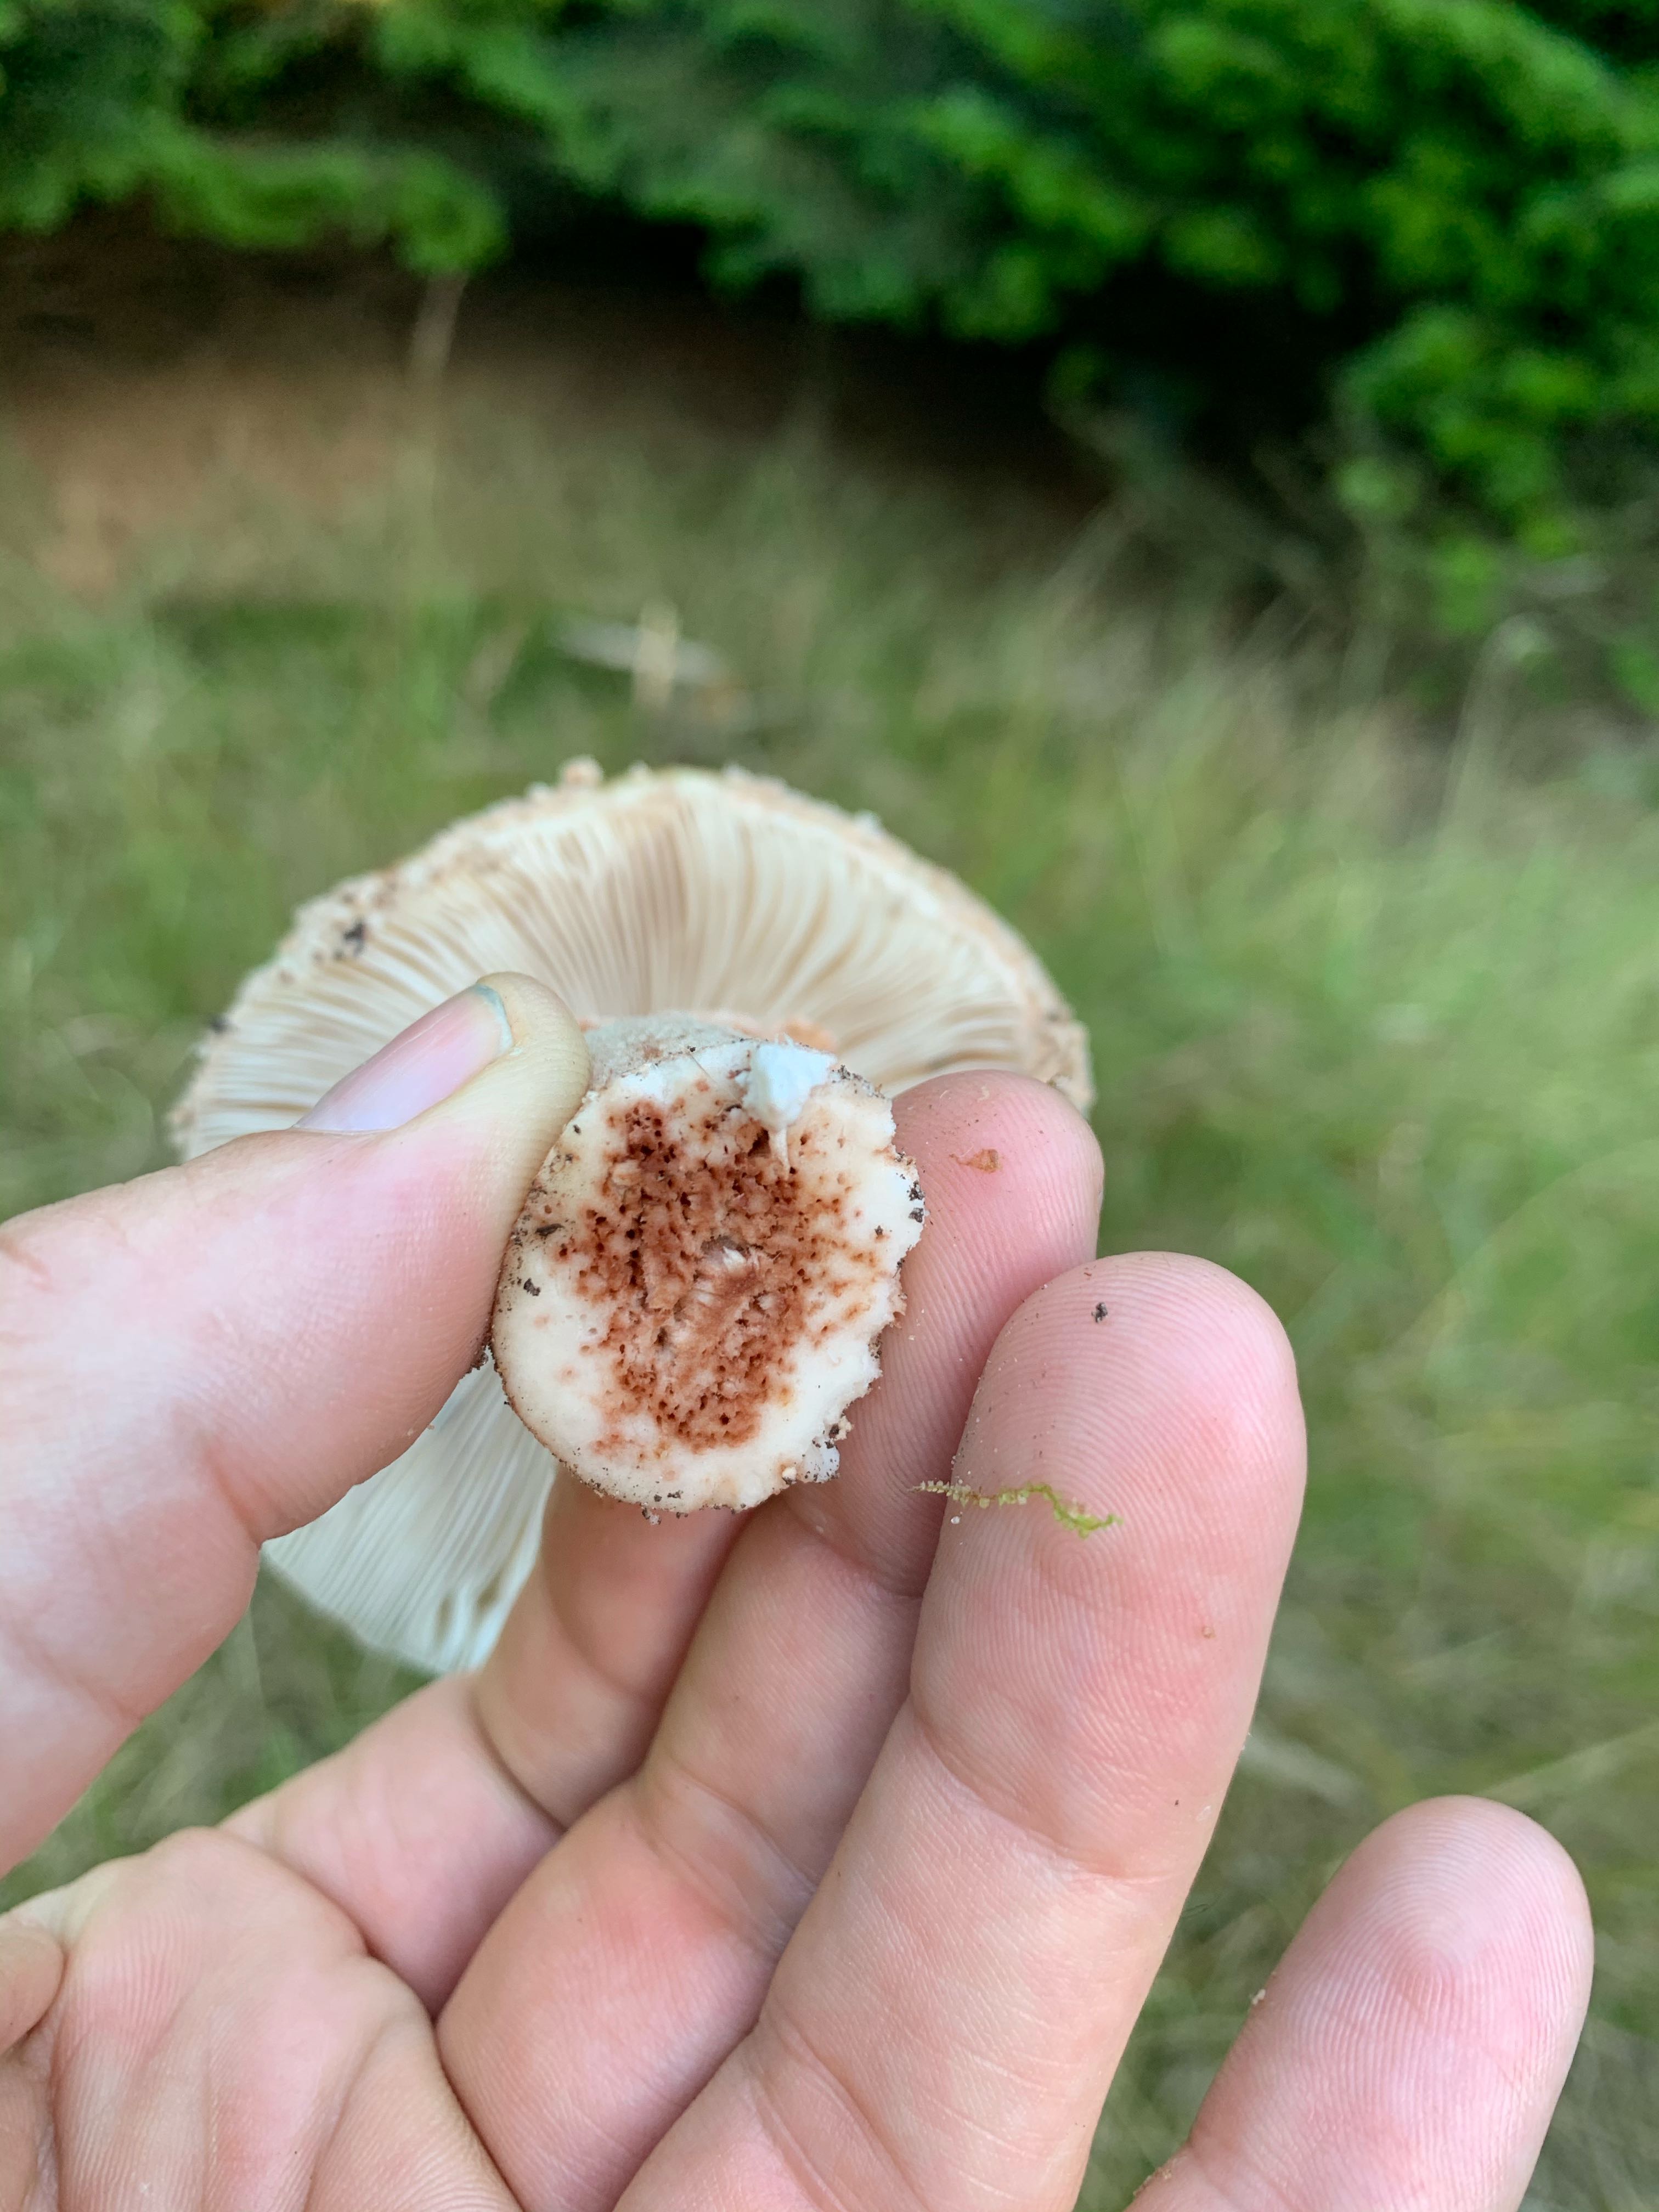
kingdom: Fungi
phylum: Basidiomycota
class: Agaricomycetes
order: Agaricales
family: Amanitaceae
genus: Amanita
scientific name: Amanita rubescens
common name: rødmende fluesvamp
